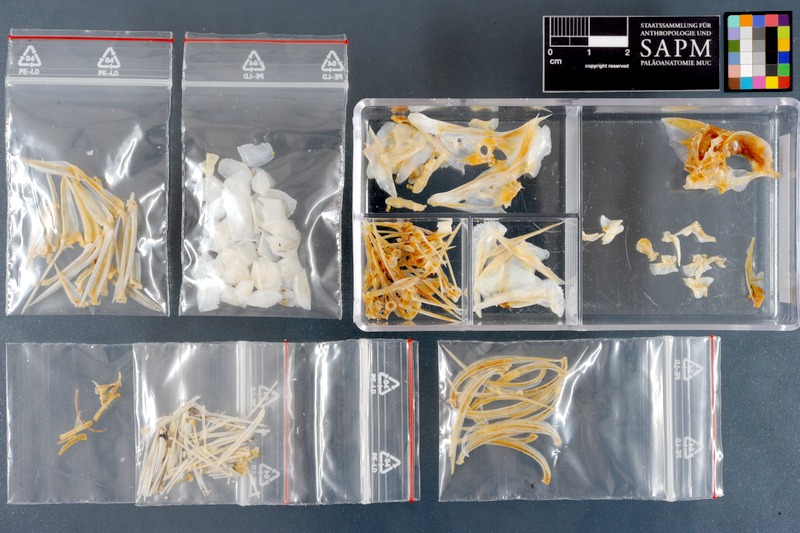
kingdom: Animalia
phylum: Chordata
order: Perciformes
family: Pomacentridae
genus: Dascyllus
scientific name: Dascyllus trimaculatus
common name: Threespot dascyllus
